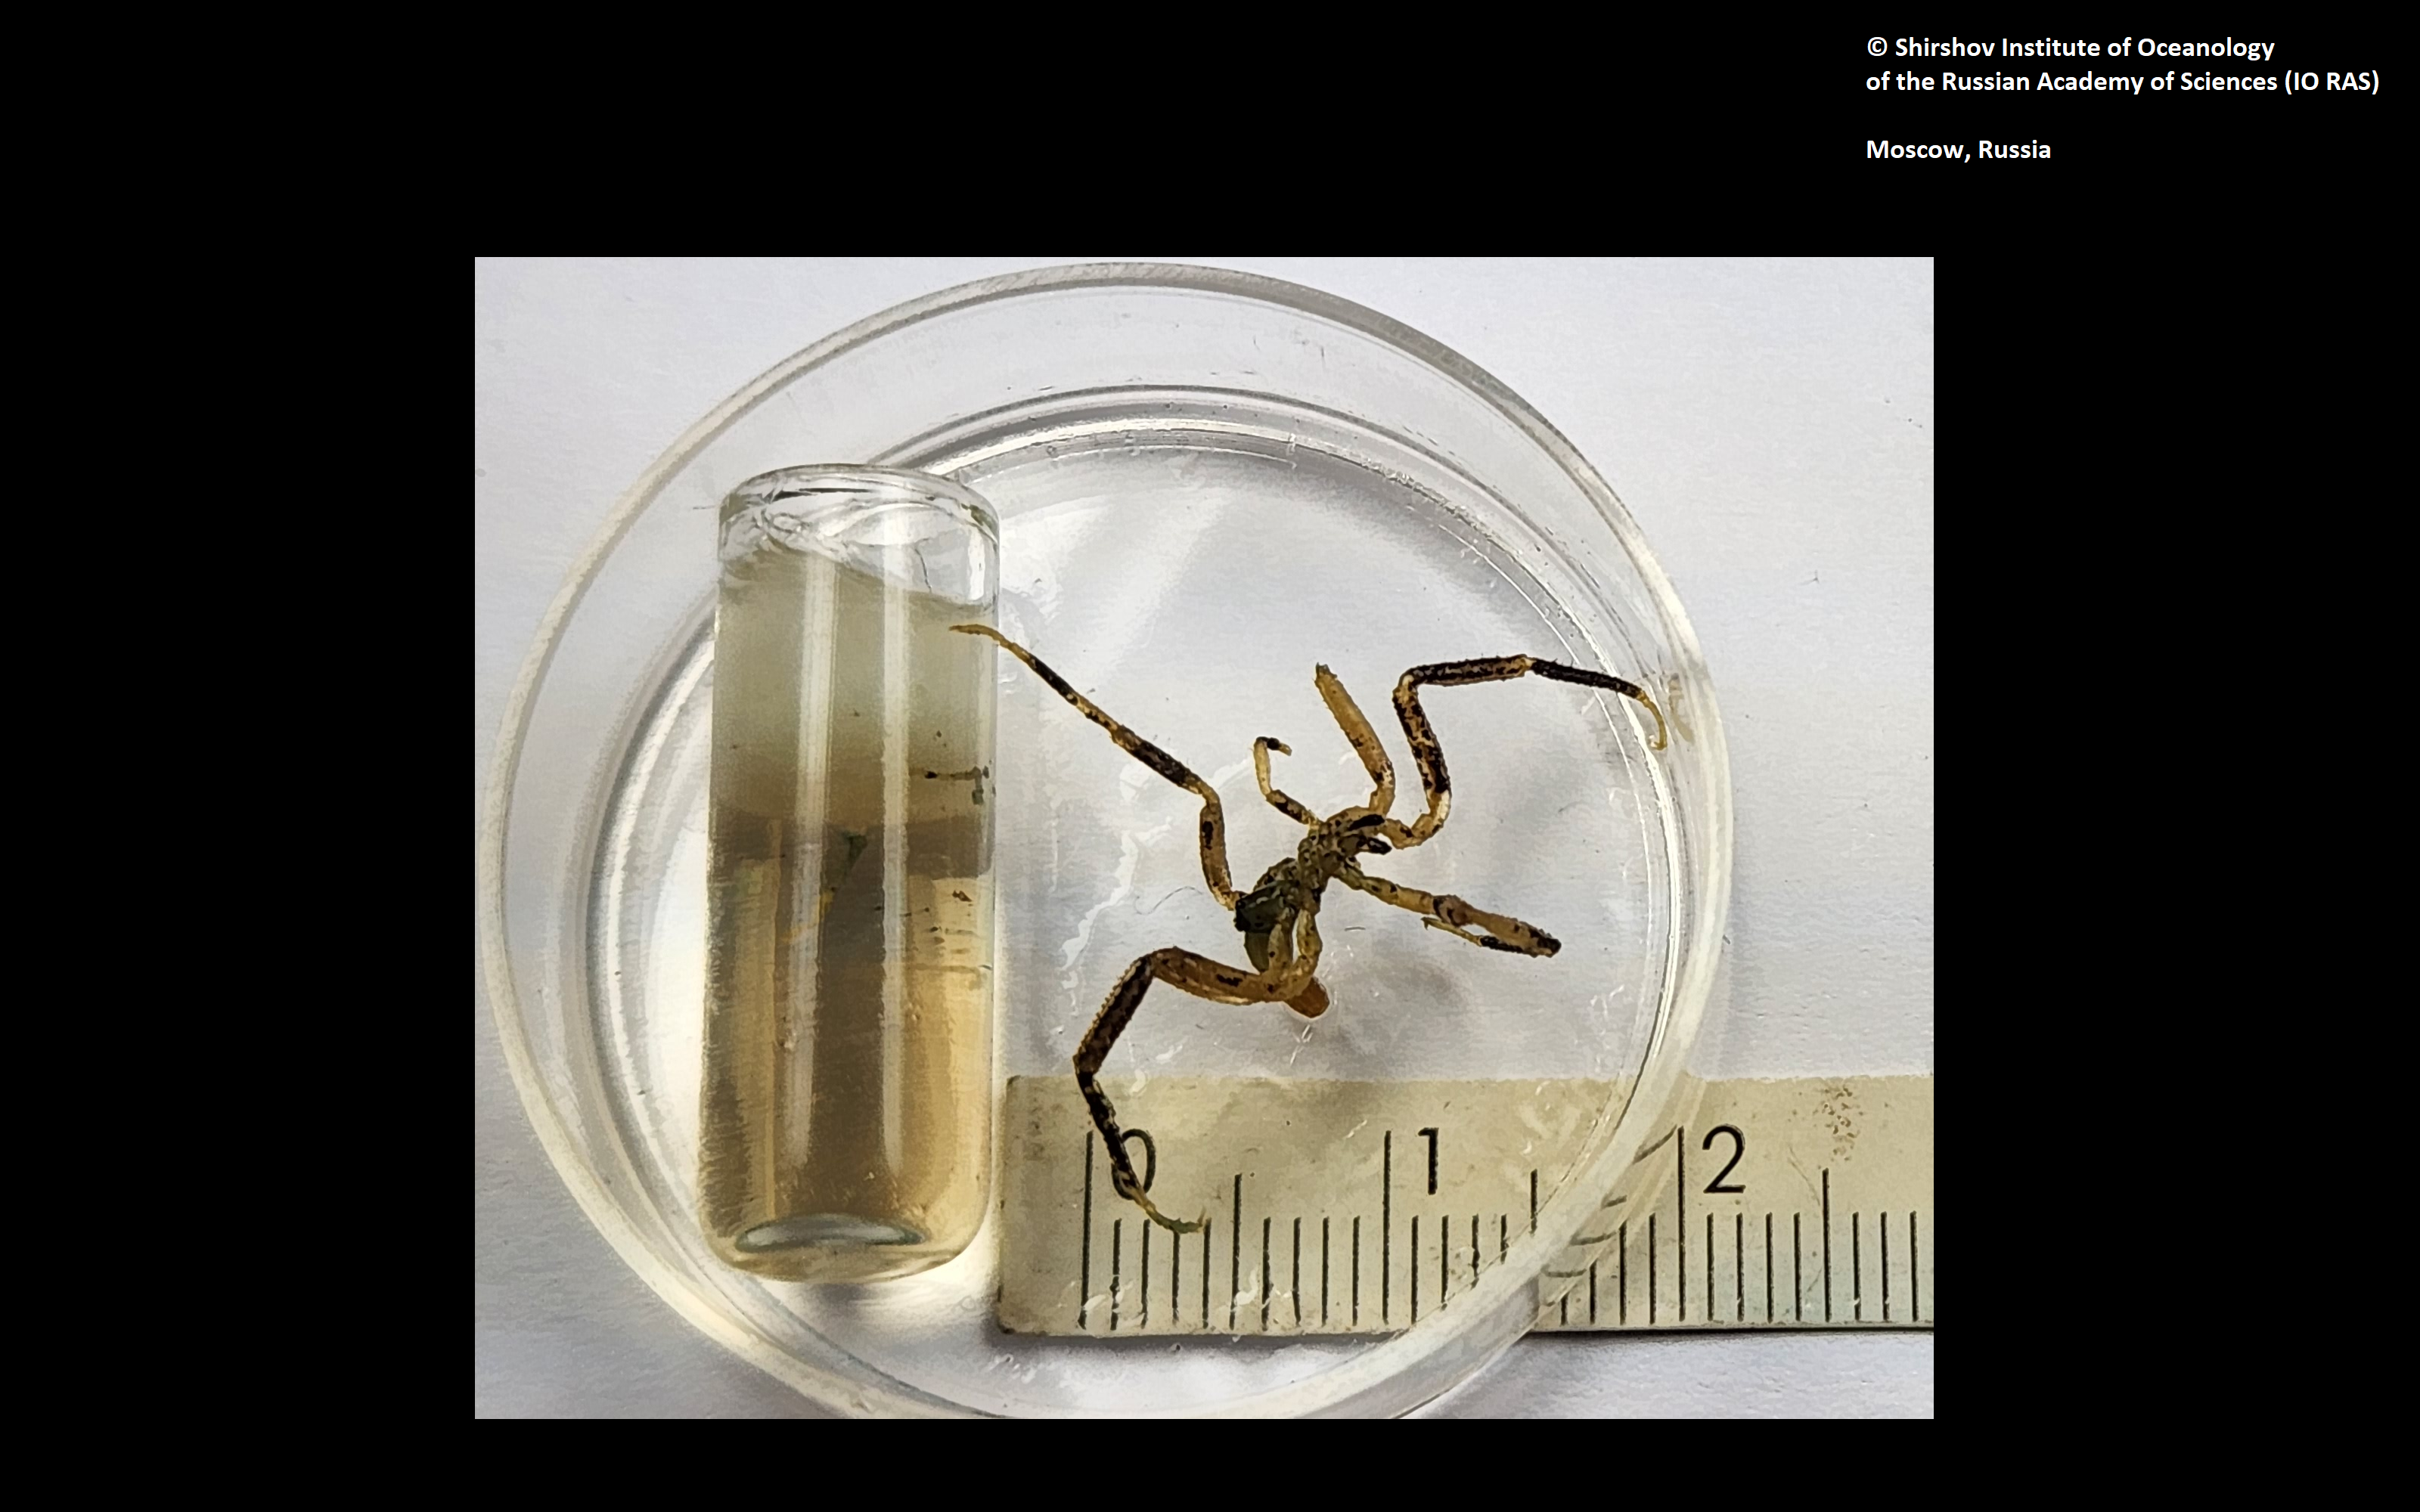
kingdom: Animalia
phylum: Arthropoda
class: Pycnogonida
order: Pantopoda
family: Ammotheidae
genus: Sericosura
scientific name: Sericosura verenae
